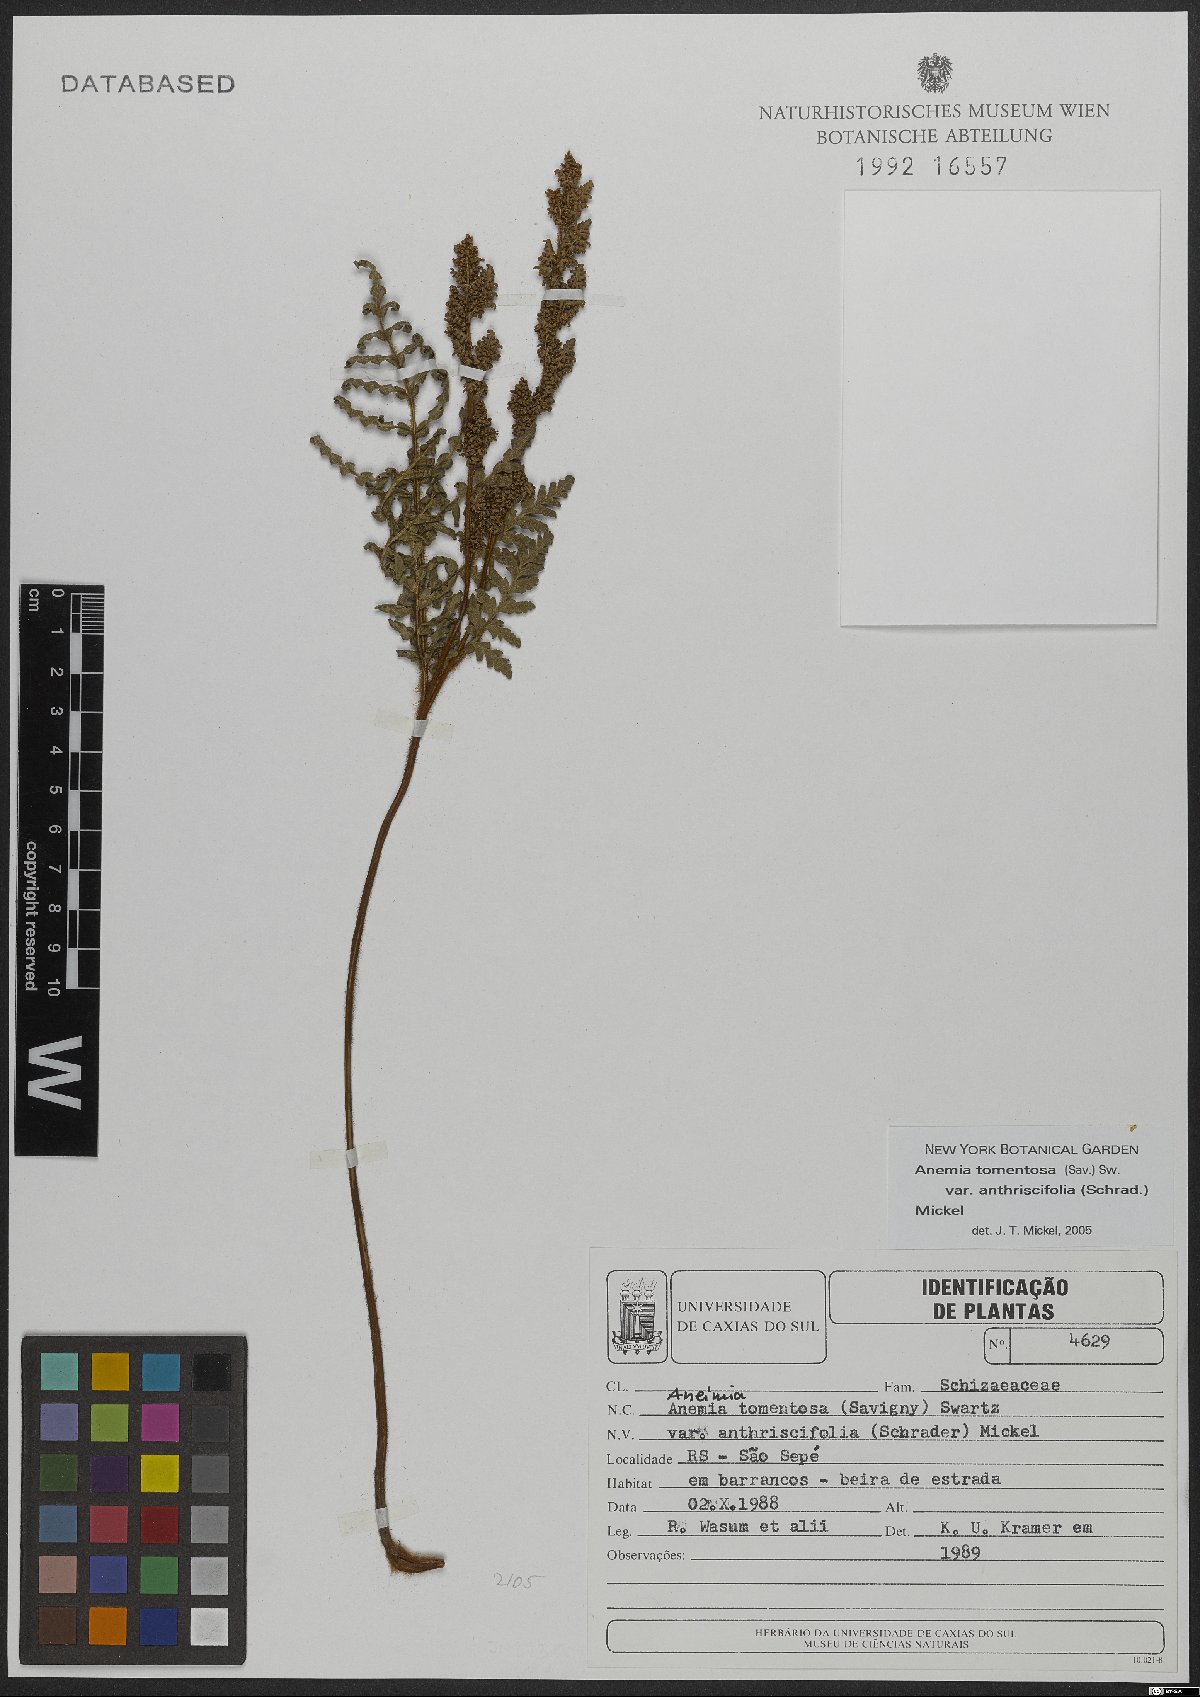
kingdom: Plantae
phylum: Tracheophyta
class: Polypodiopsida
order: Schizaeales
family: Anemiaceae
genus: Anemia
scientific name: Anemia tomentosa
